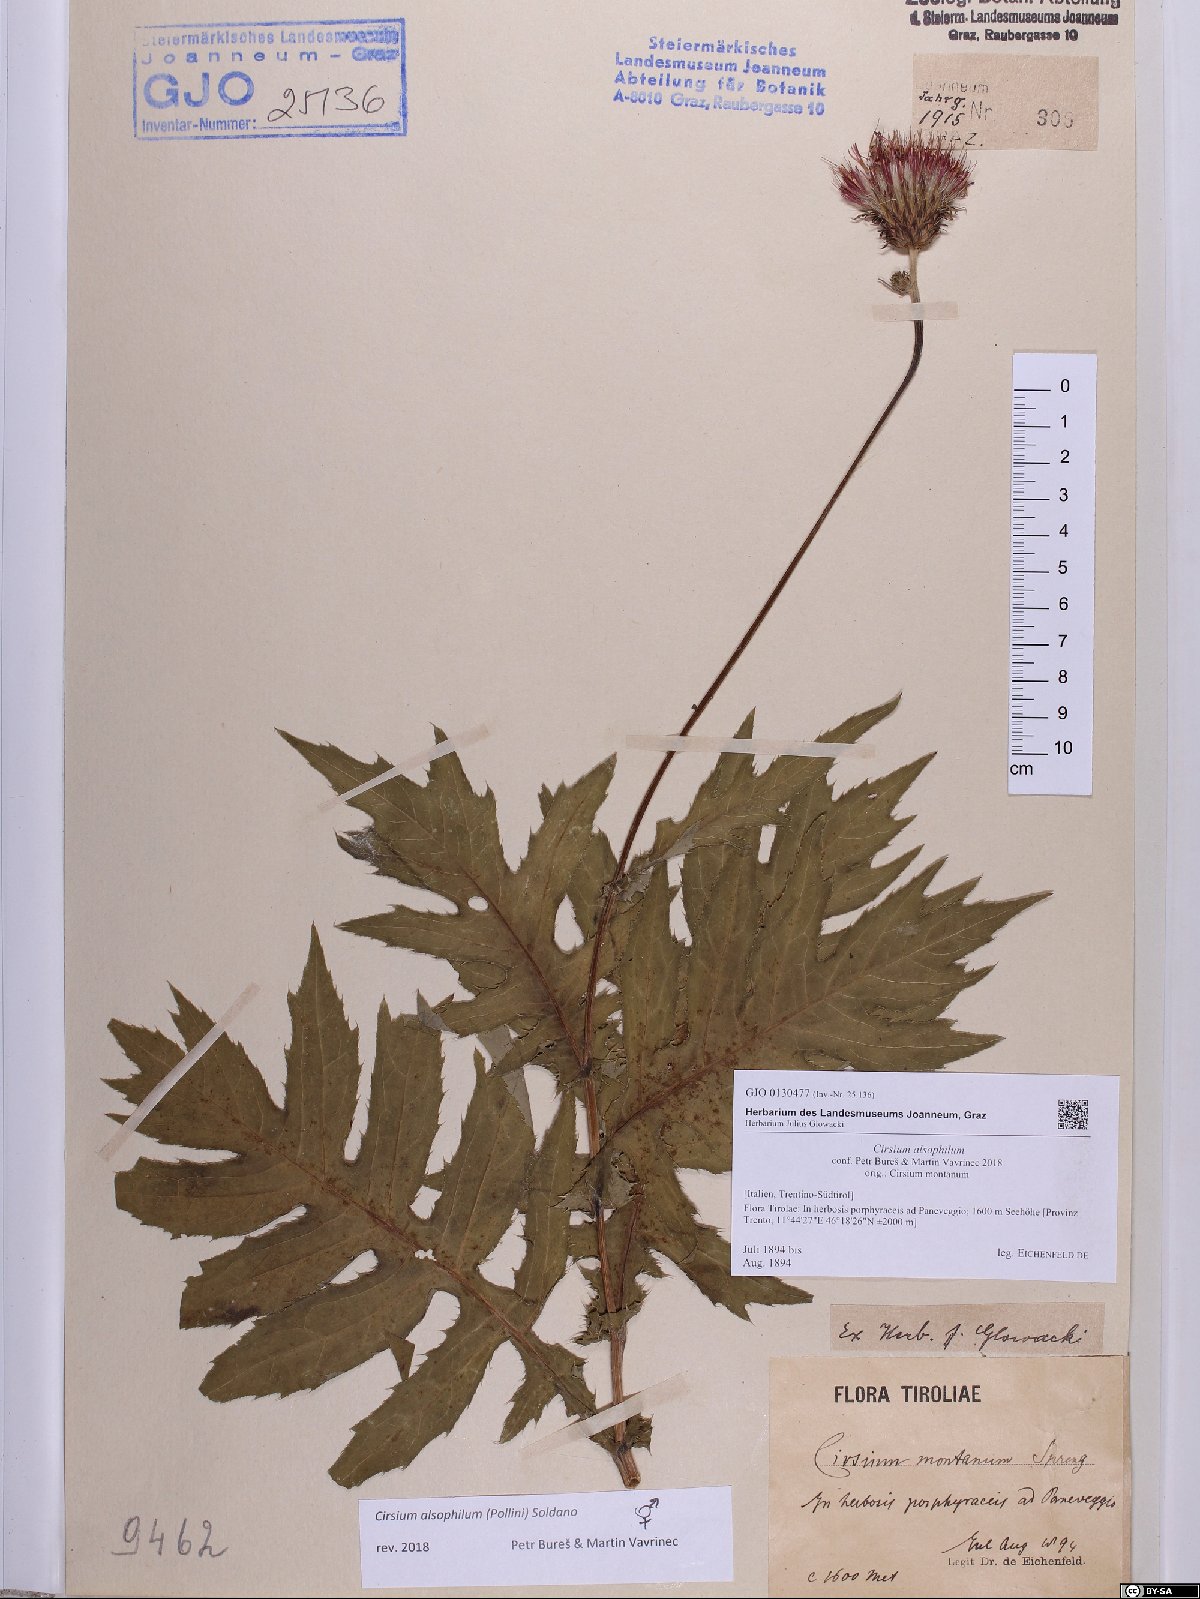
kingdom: Plantae
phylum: Tracheophyta
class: Magnoliopsida
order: Asterales
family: Asteraceae
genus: Cirsium
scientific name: Cirsium alsophilum
